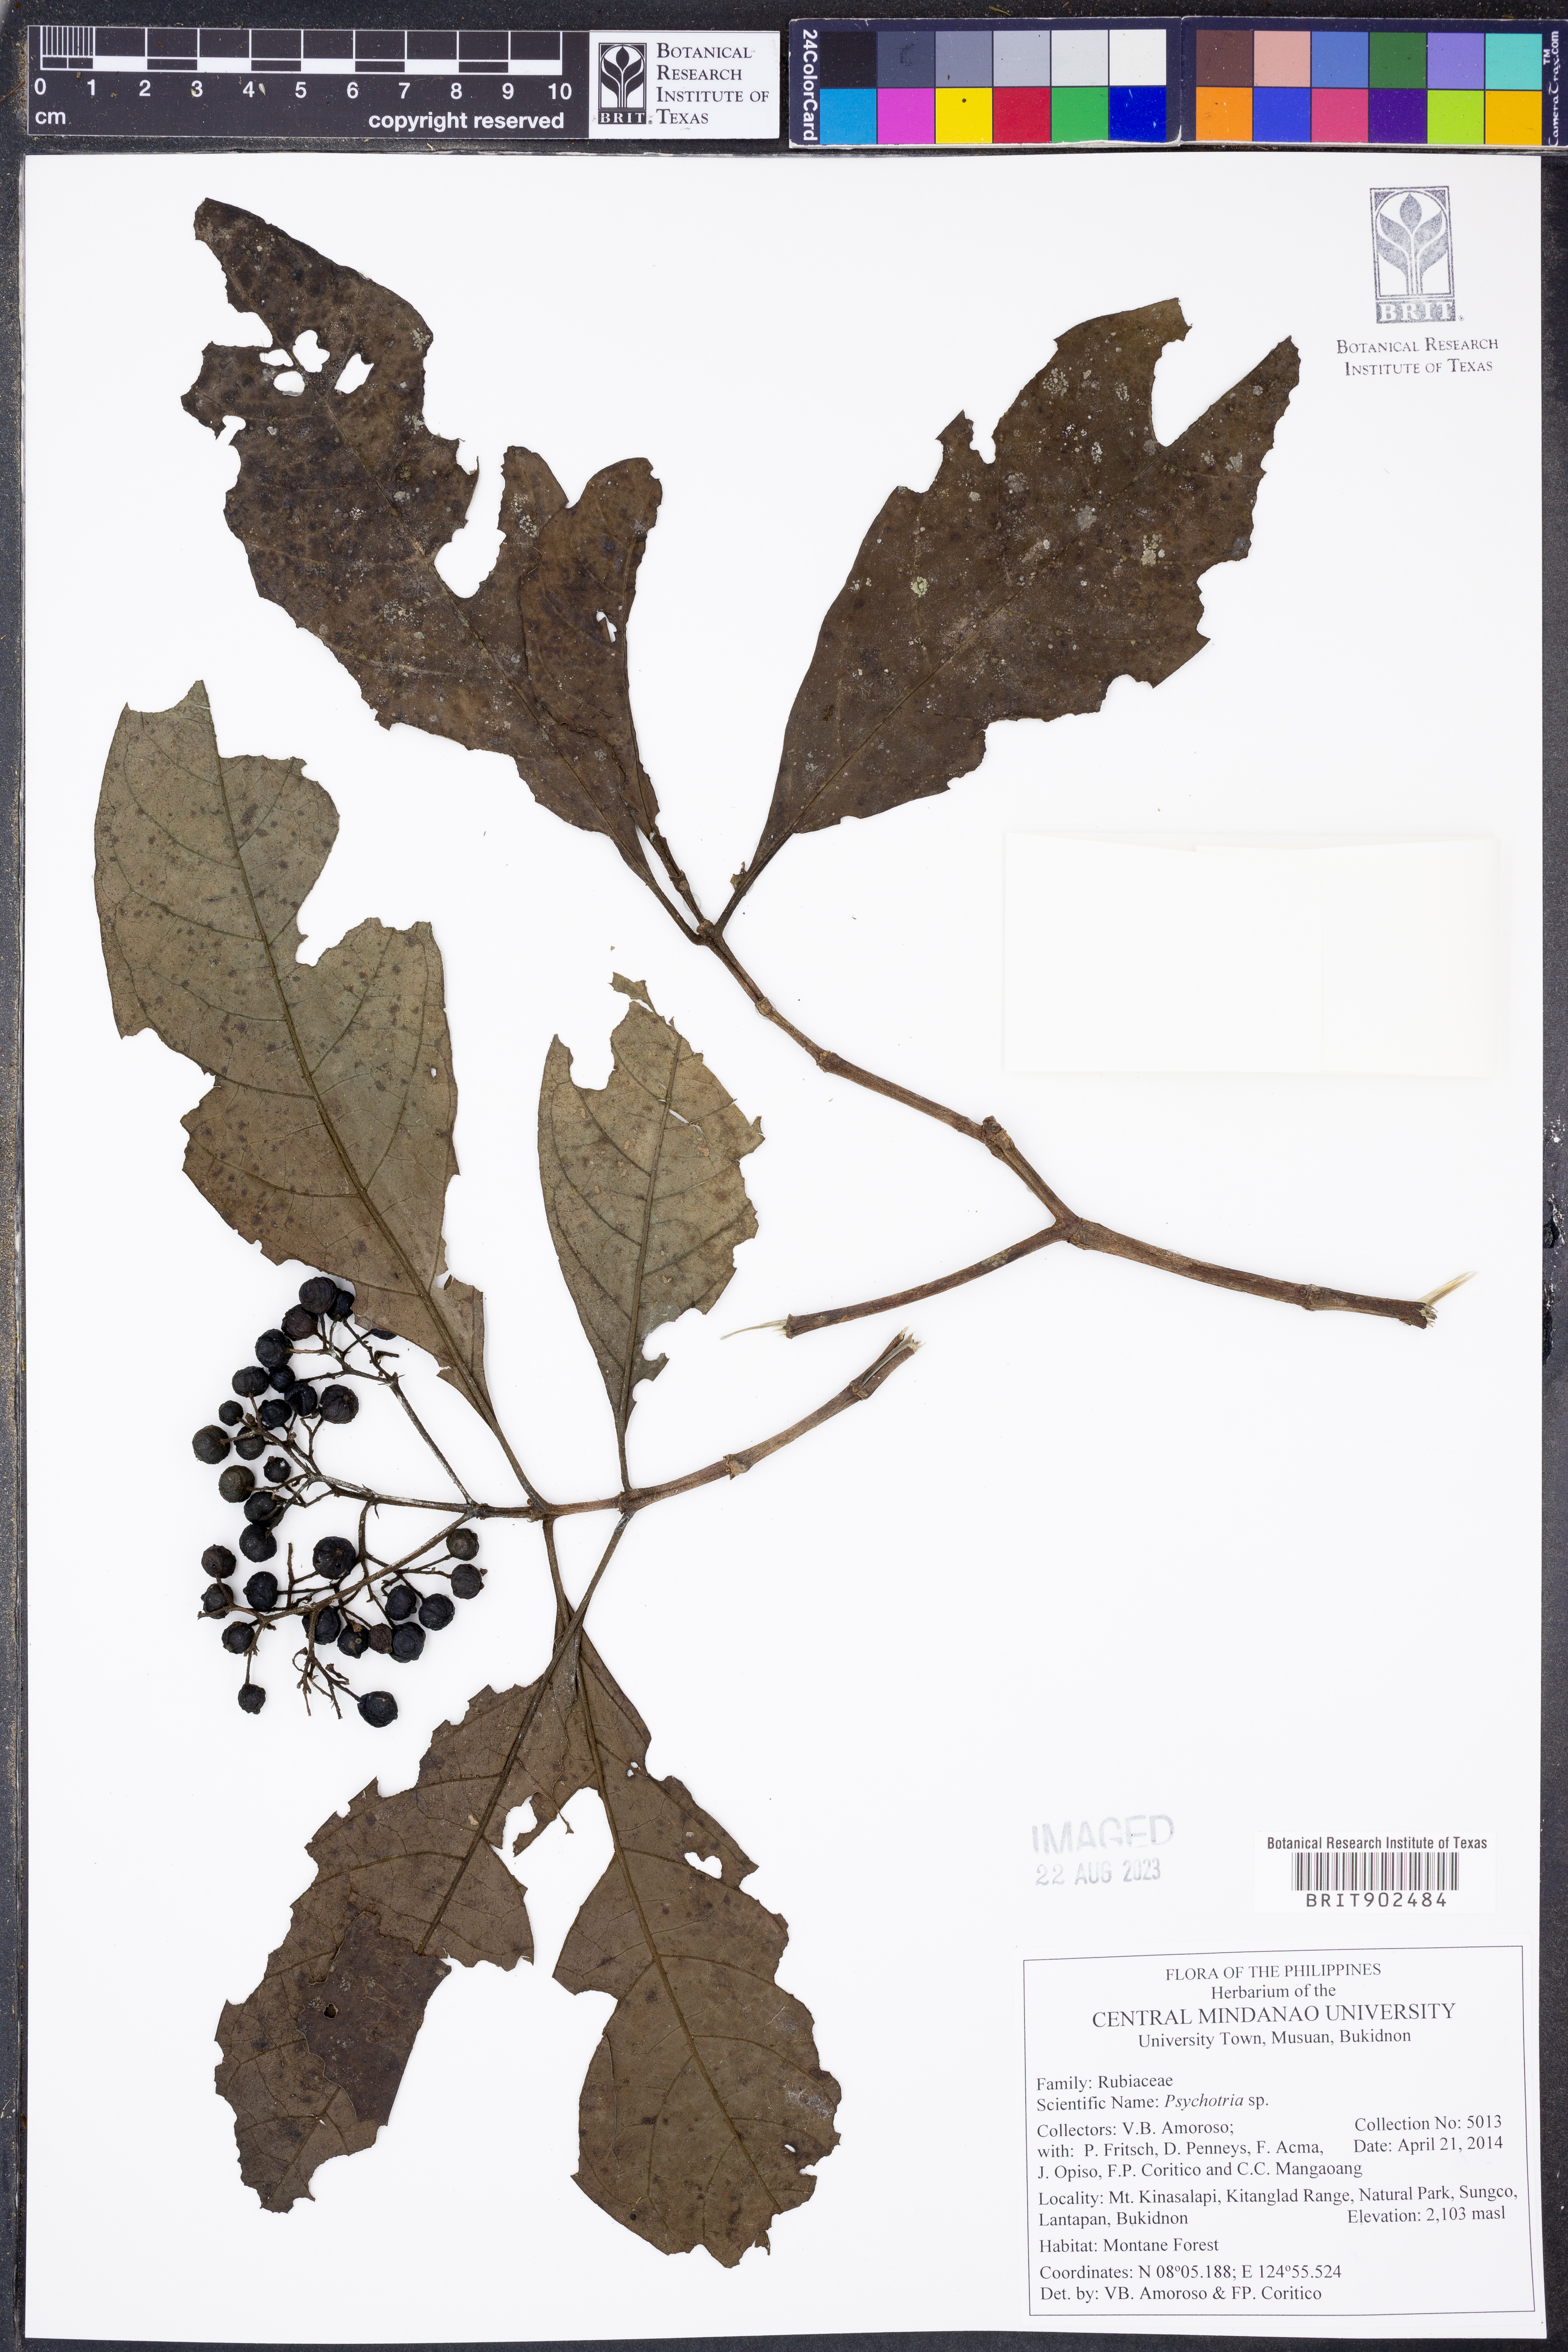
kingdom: Plantae
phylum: Tracheophyta
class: Magnoliopsida
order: Gentianales
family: Rubiaceae
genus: Psychotria
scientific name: Psychotria
